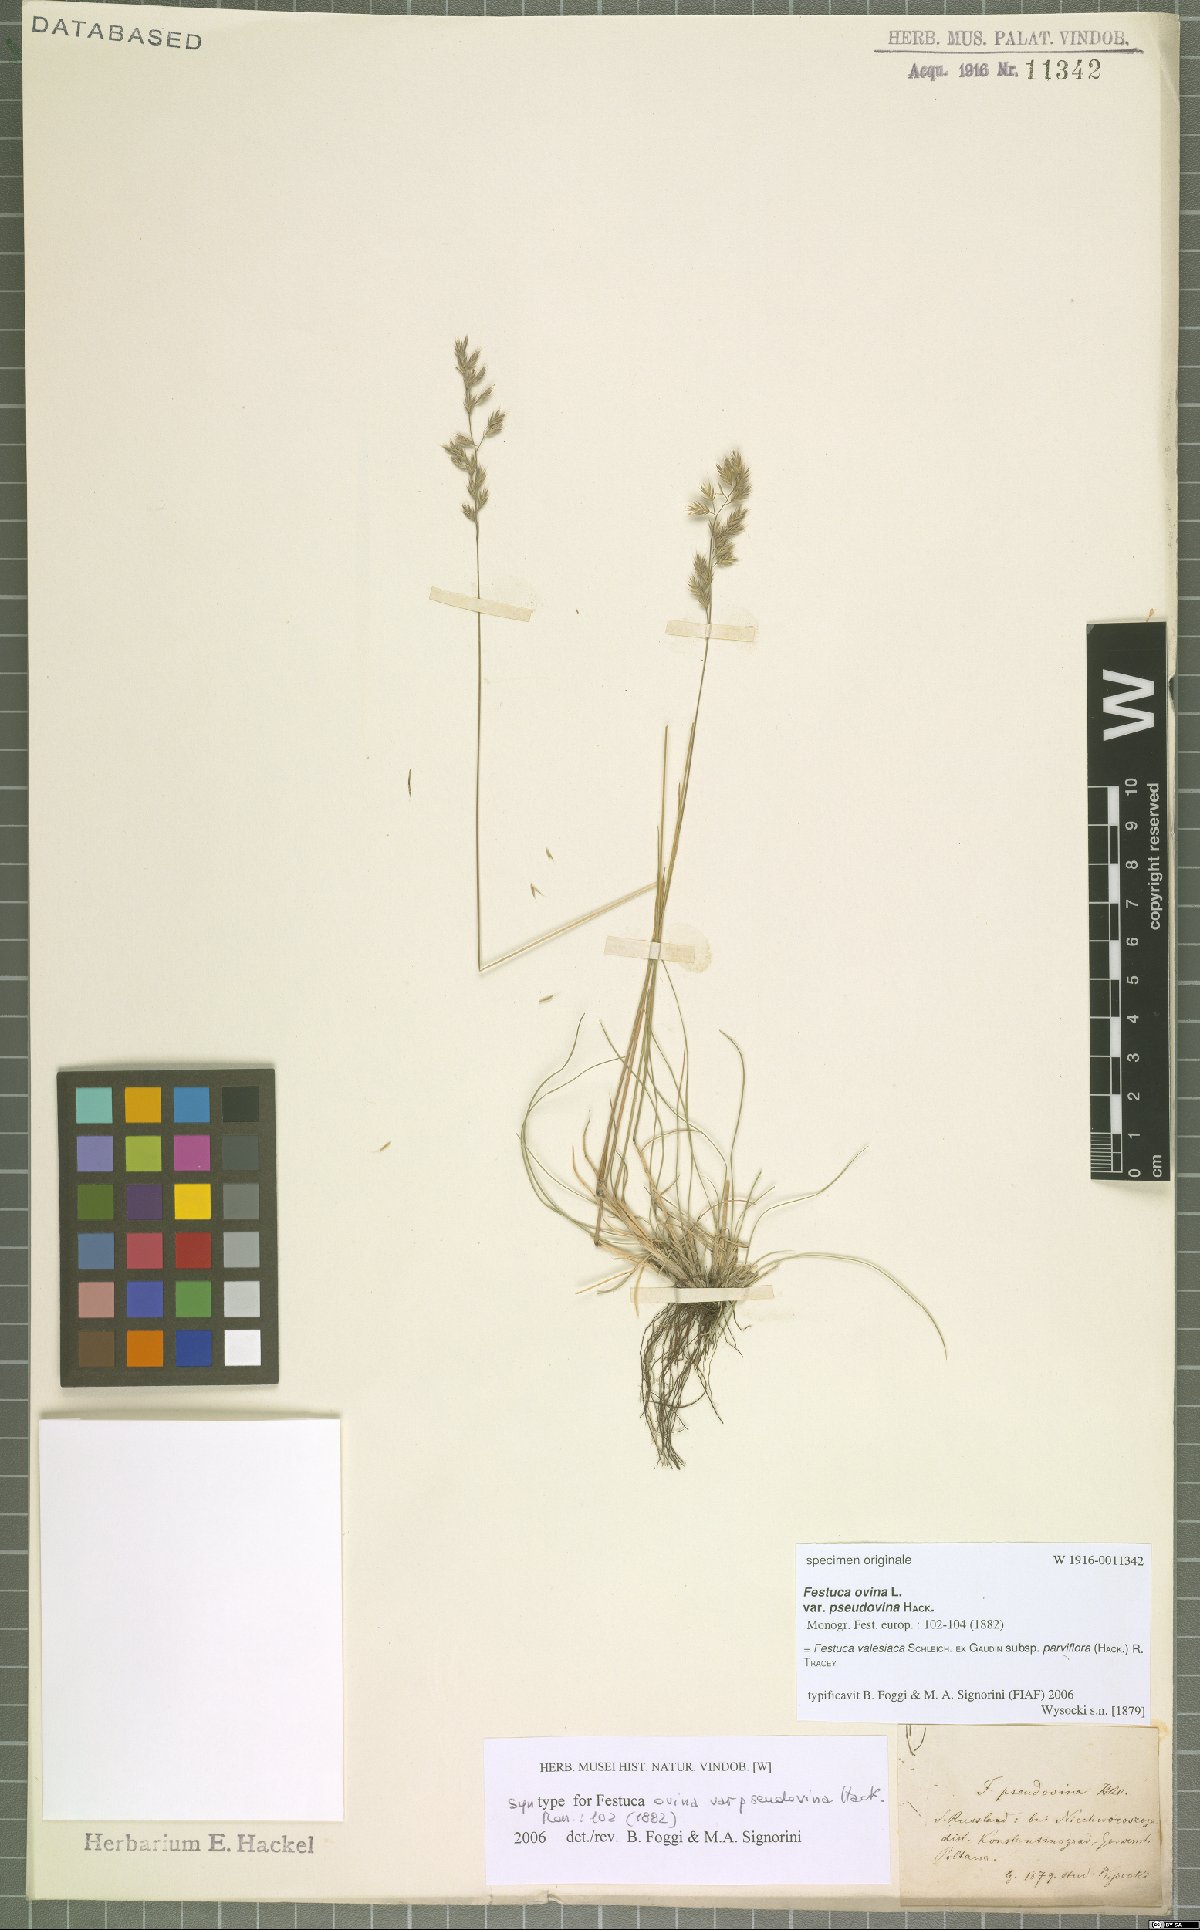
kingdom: Plantae
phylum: Tracheophyta
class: Liliopsida
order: Poales
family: Poaceae
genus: Festuca
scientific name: Festuca pulchra
